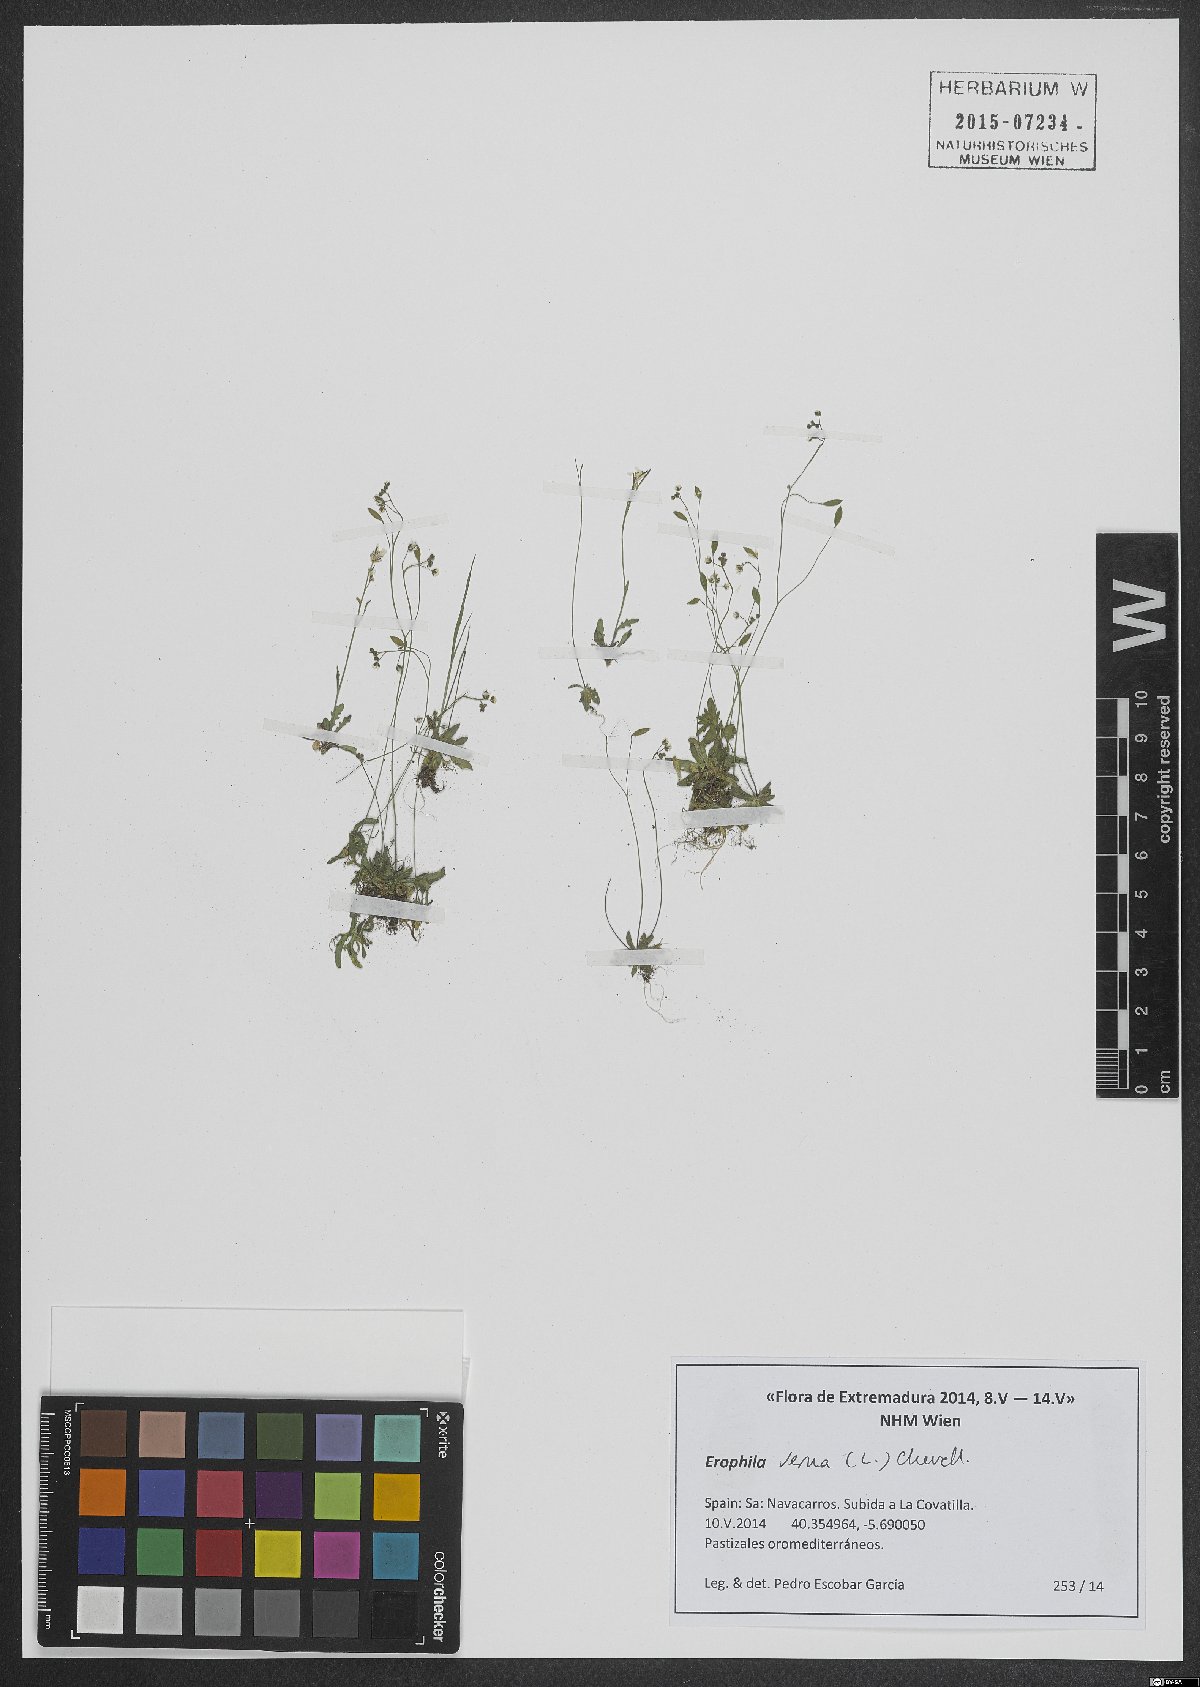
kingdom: Plantae
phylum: Tracheophyta
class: Magnoliopsida
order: Brassicales
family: Brassicaceae
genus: Draba
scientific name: Draba verna
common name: Spring draba
